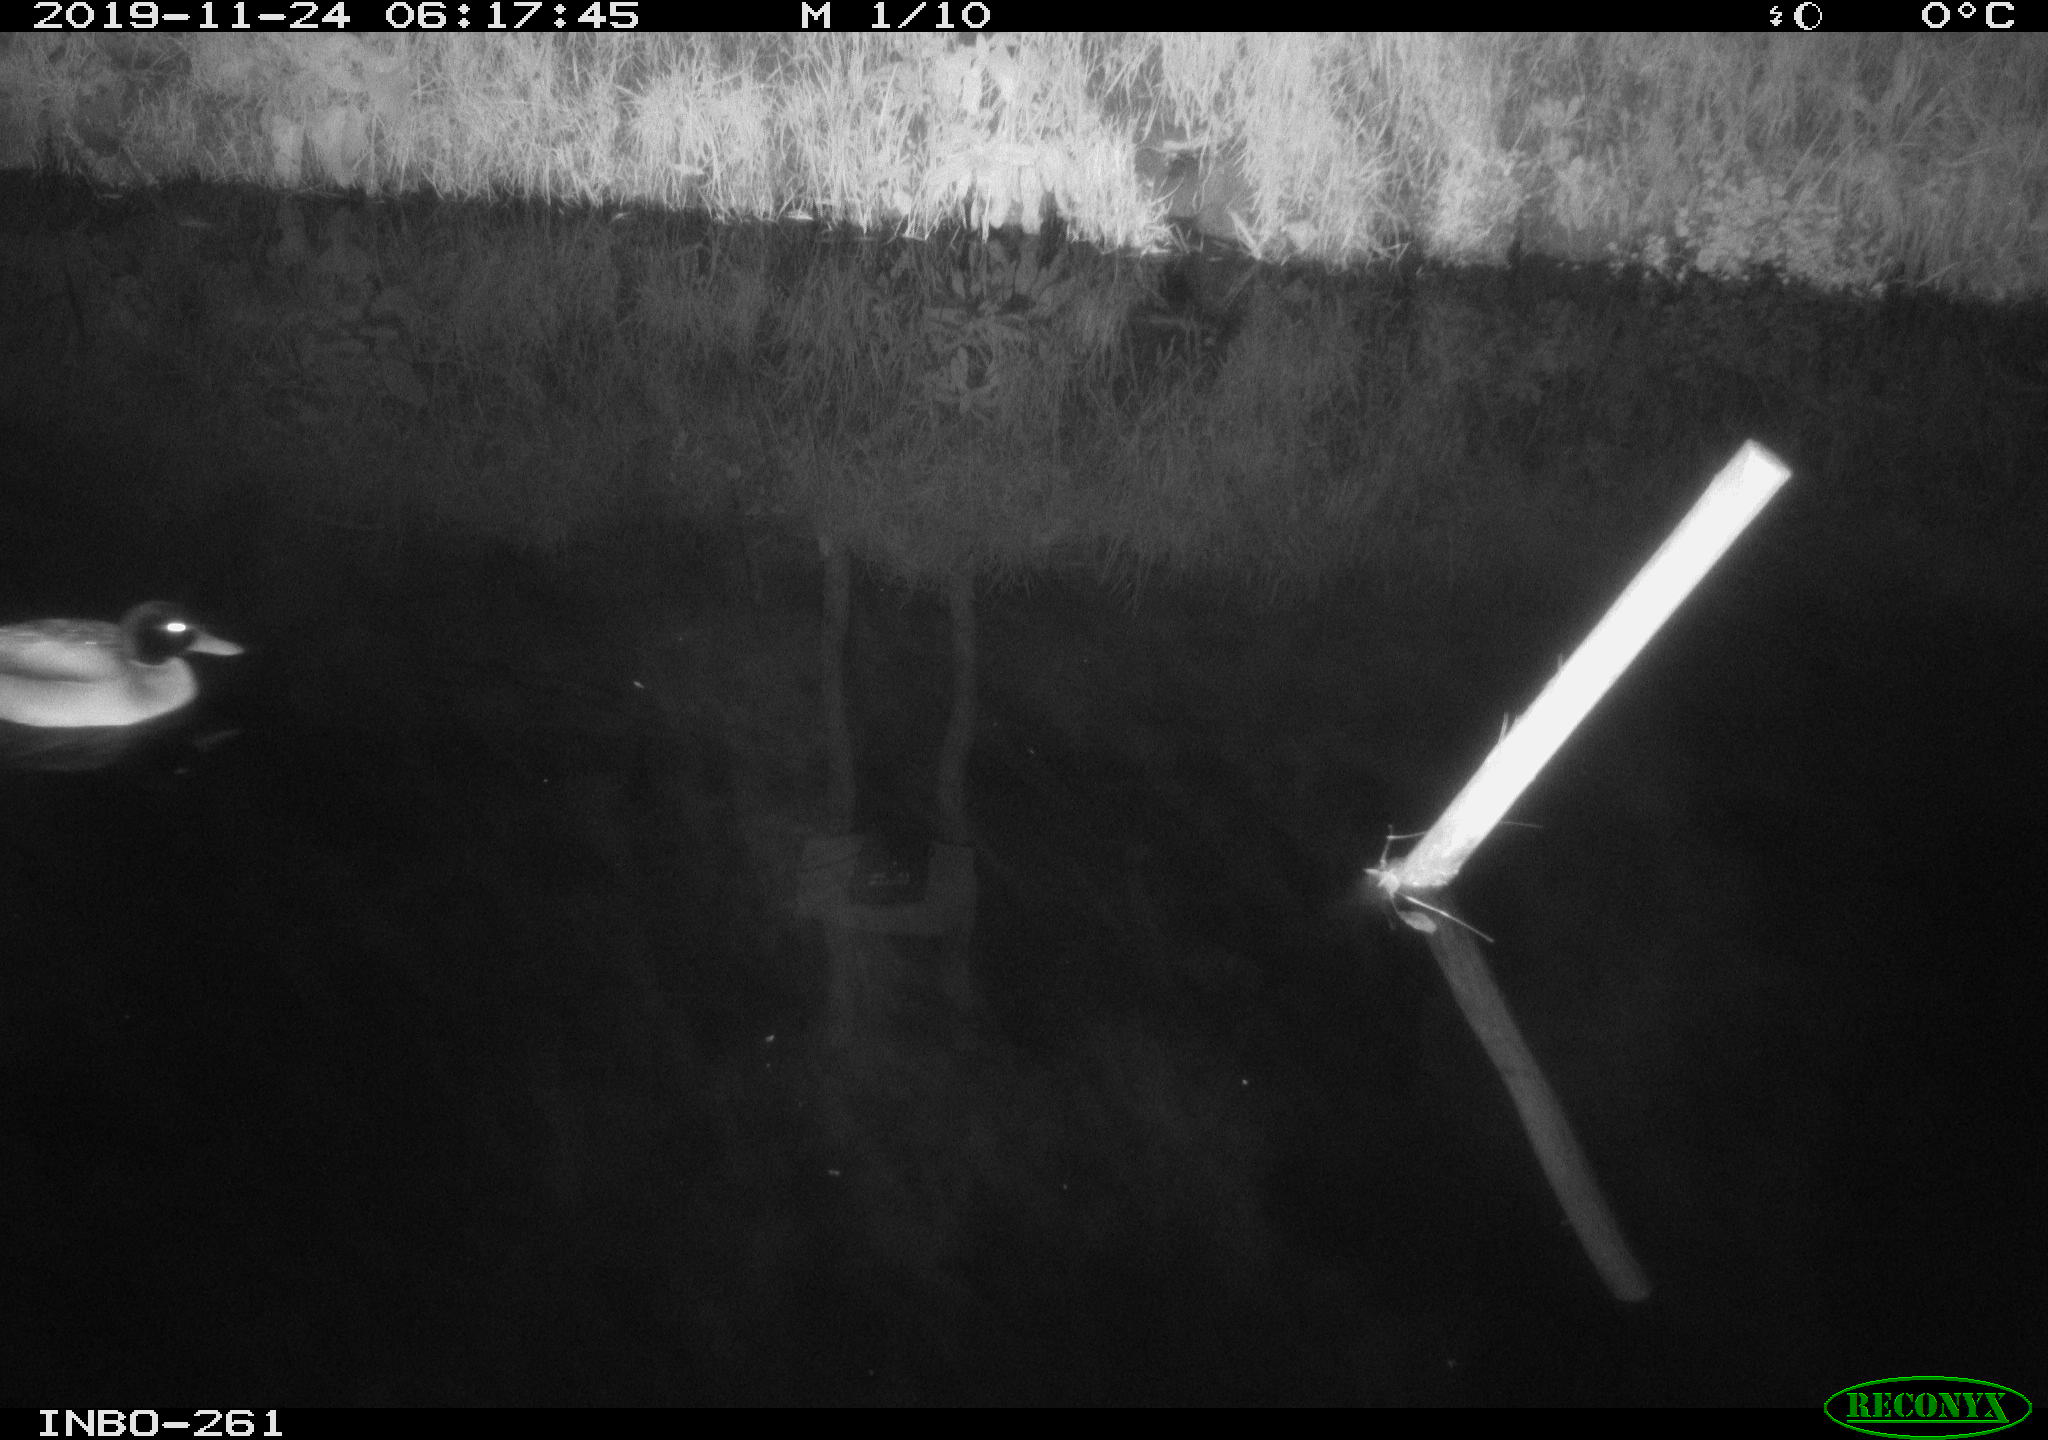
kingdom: Animalia
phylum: Chordata
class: Aves
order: Anseriformes
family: Anatidae
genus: Anas
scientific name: Anas platyrhynchos
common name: Mallard
